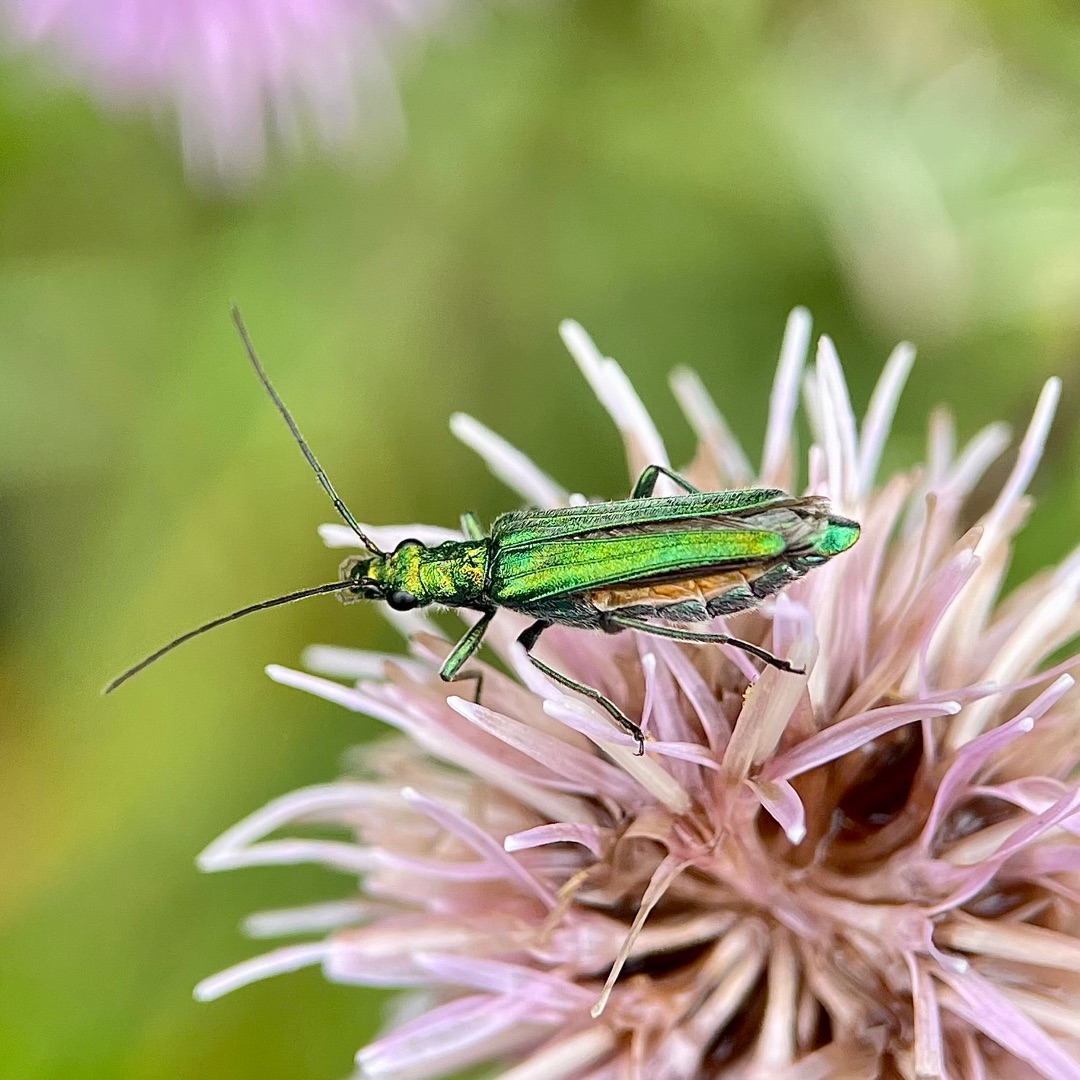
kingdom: Animalia
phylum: Arthropoda
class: Insecta
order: Coleoptera
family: Oedemeridae
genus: Oedemera
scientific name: Oedemera nobilis
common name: Tyklårssolbille
